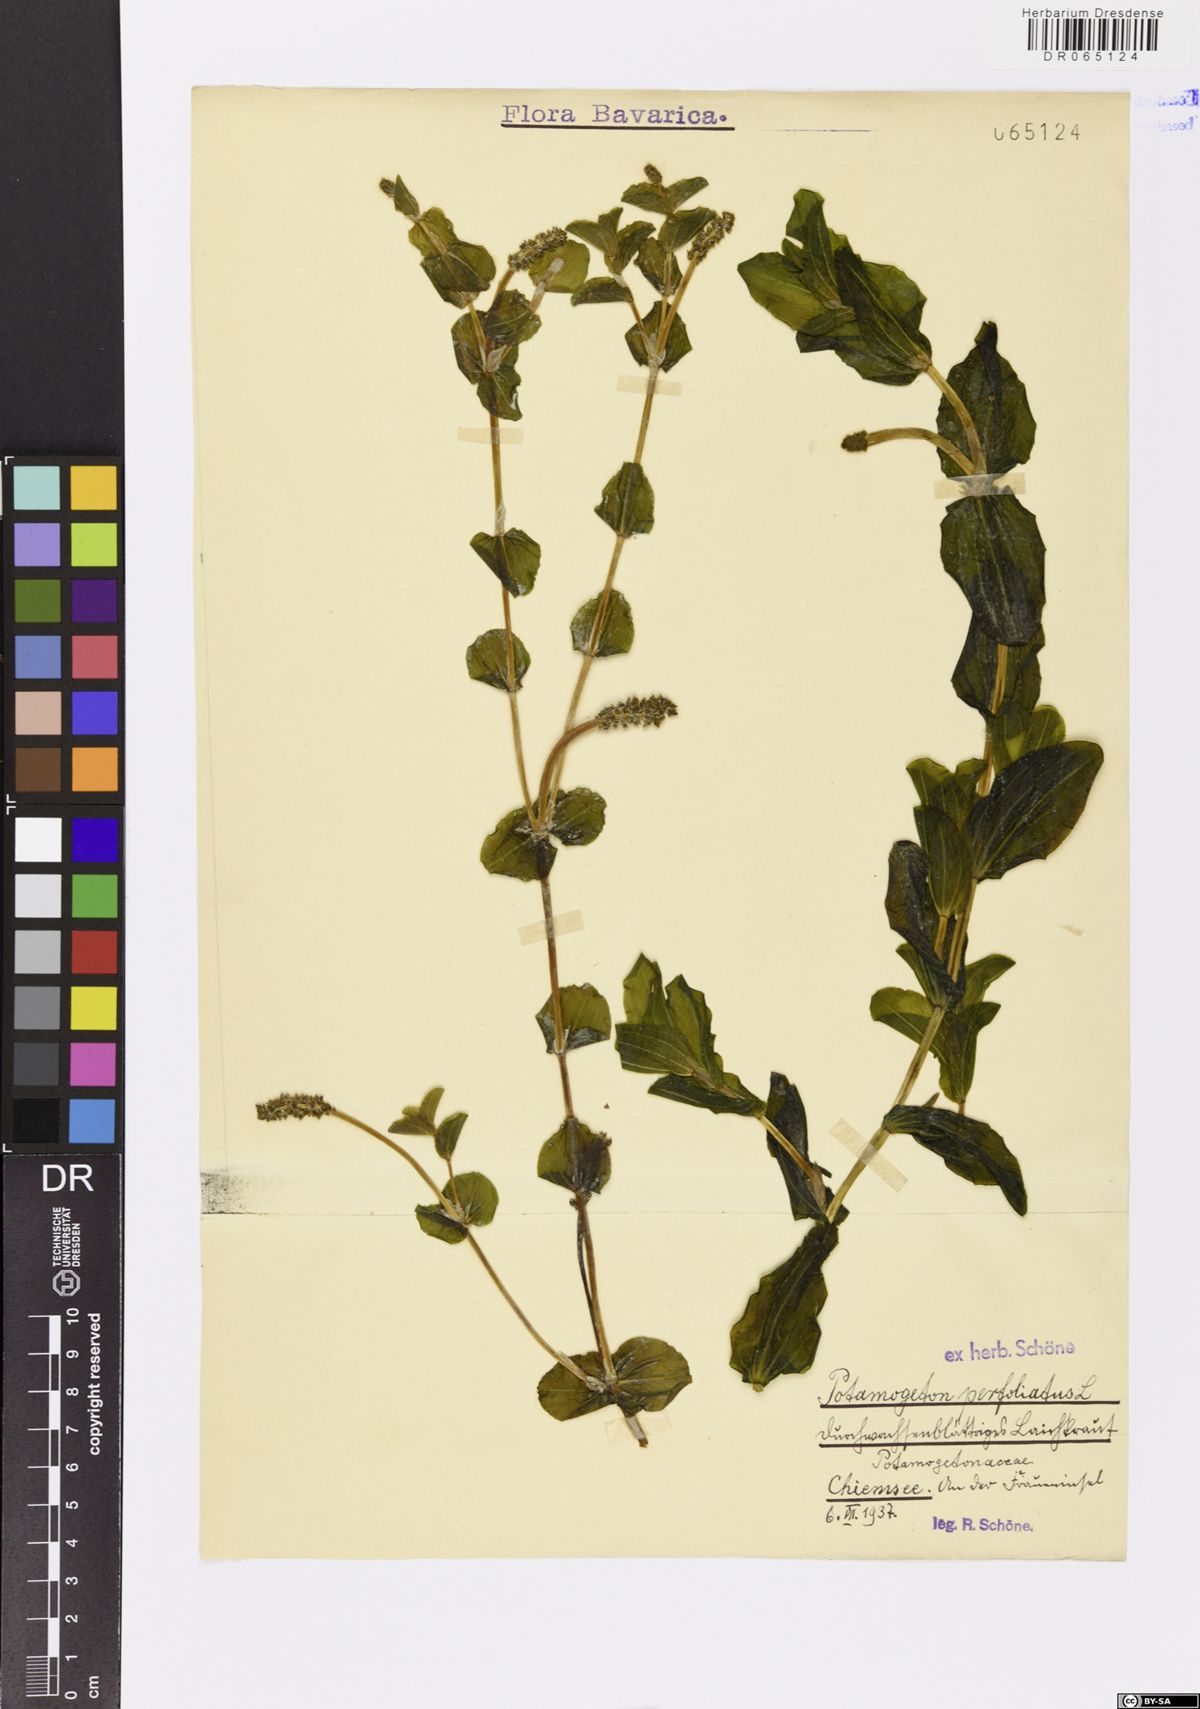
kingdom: Plantae
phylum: Tracheophyta
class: Liliopsida
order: Alismatales
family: Potamogetonaceae
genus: Potamogeton
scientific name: Potamogeton perfoliatus
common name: Perfoliate pondweed
